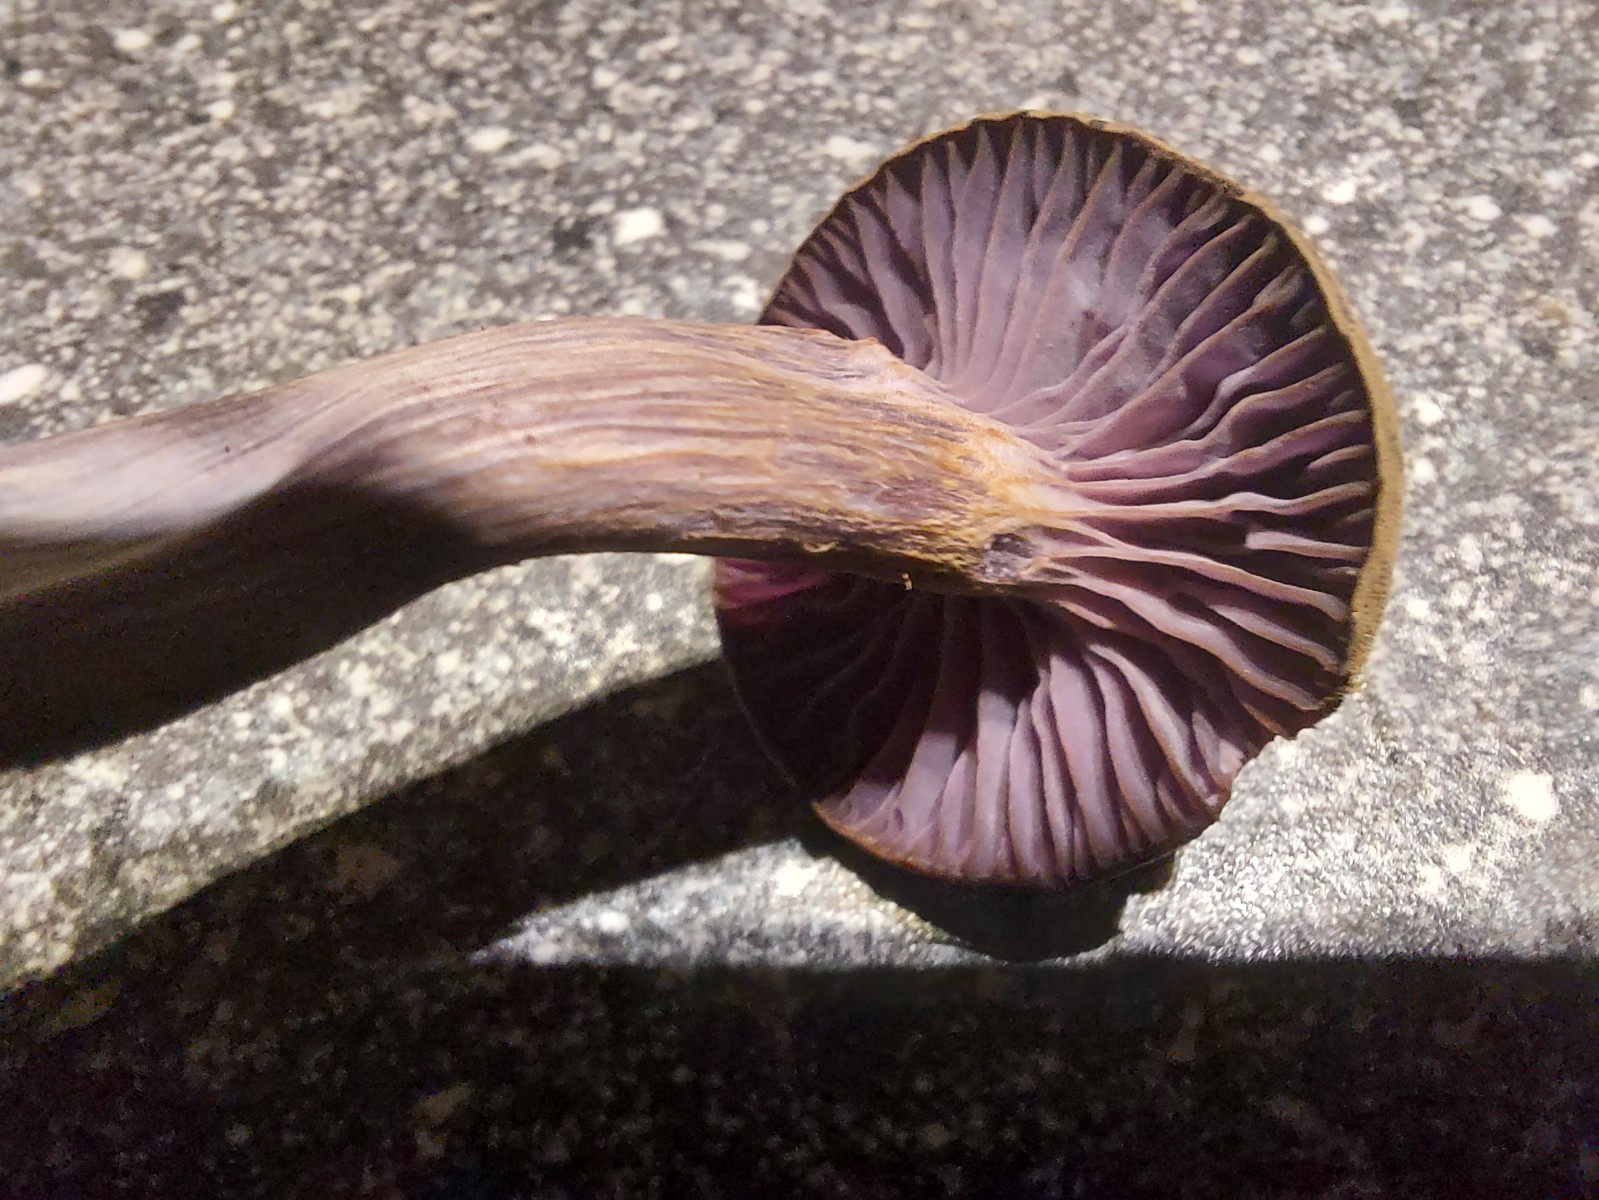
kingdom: Fungi
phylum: Basidiomycota
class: Agaricomycetes
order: Agaricales
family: Hydnangiaceae
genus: Laccaria
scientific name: Laccaria amethystina
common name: violet ametysthat
